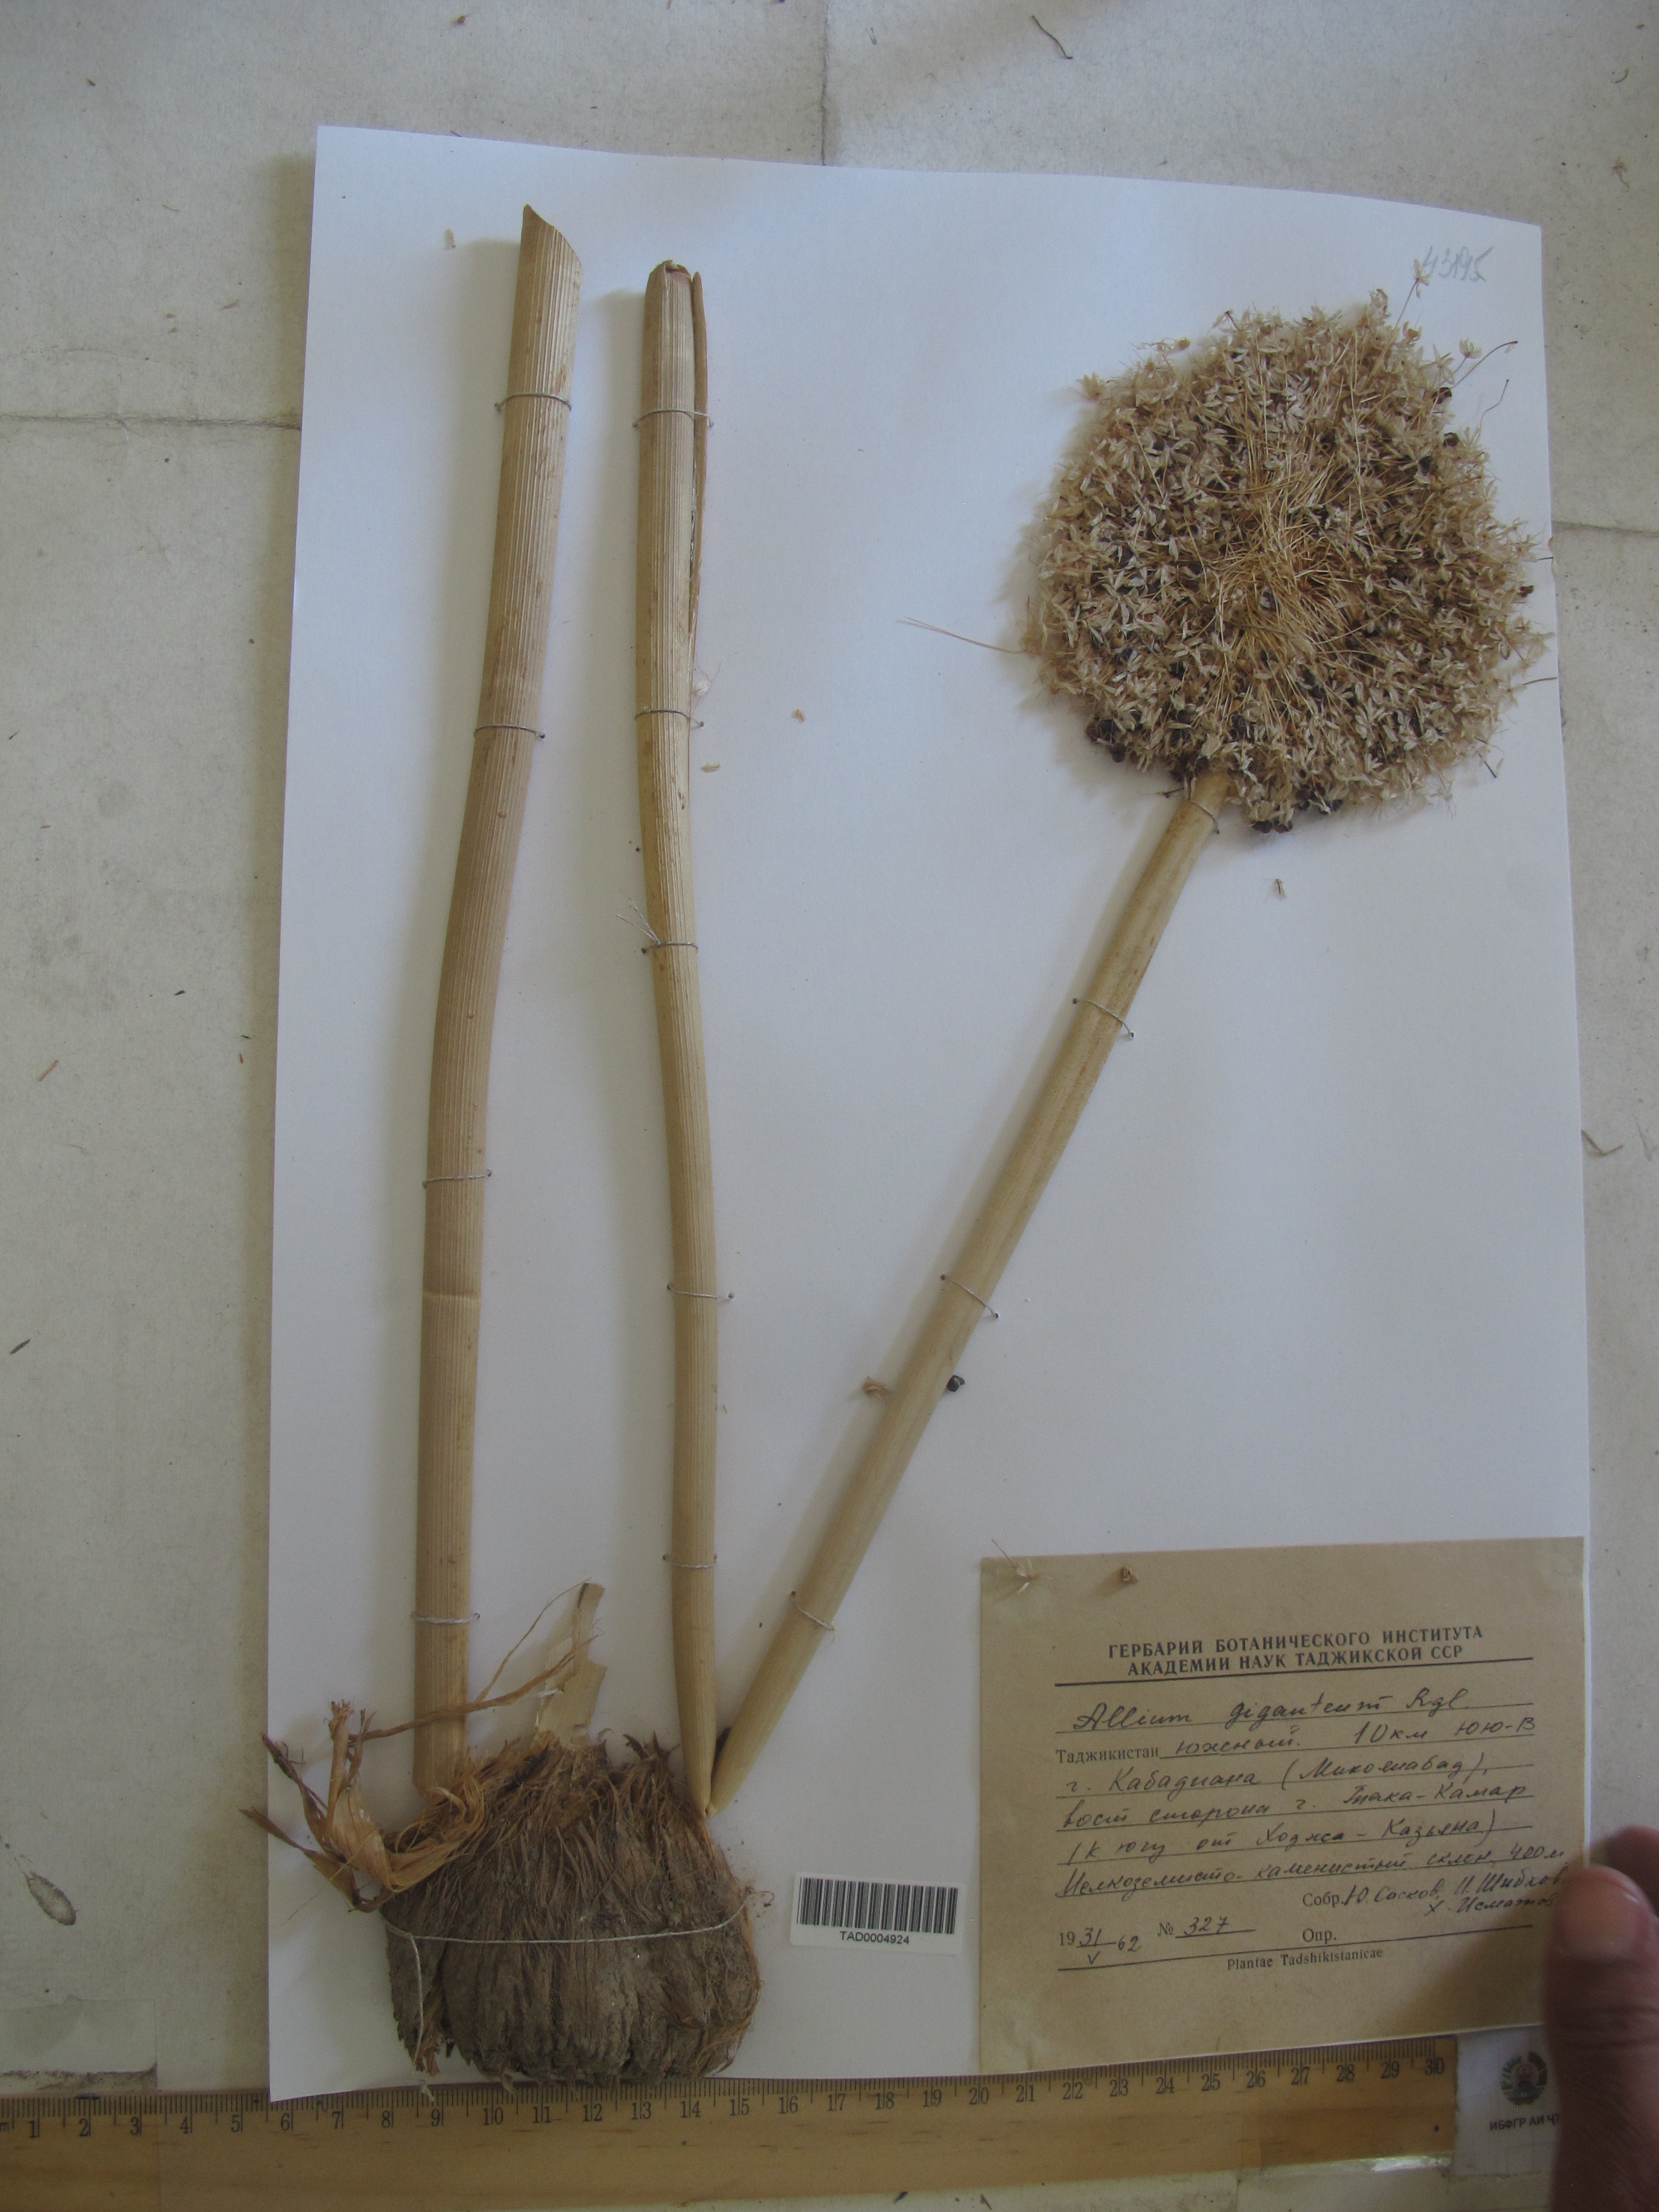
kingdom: Plantae
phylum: Tracheophyta
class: Liliopsida
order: Asparagales
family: Amaryllidaceae
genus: Allium
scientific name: Allium giganteum
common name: Giant onion
